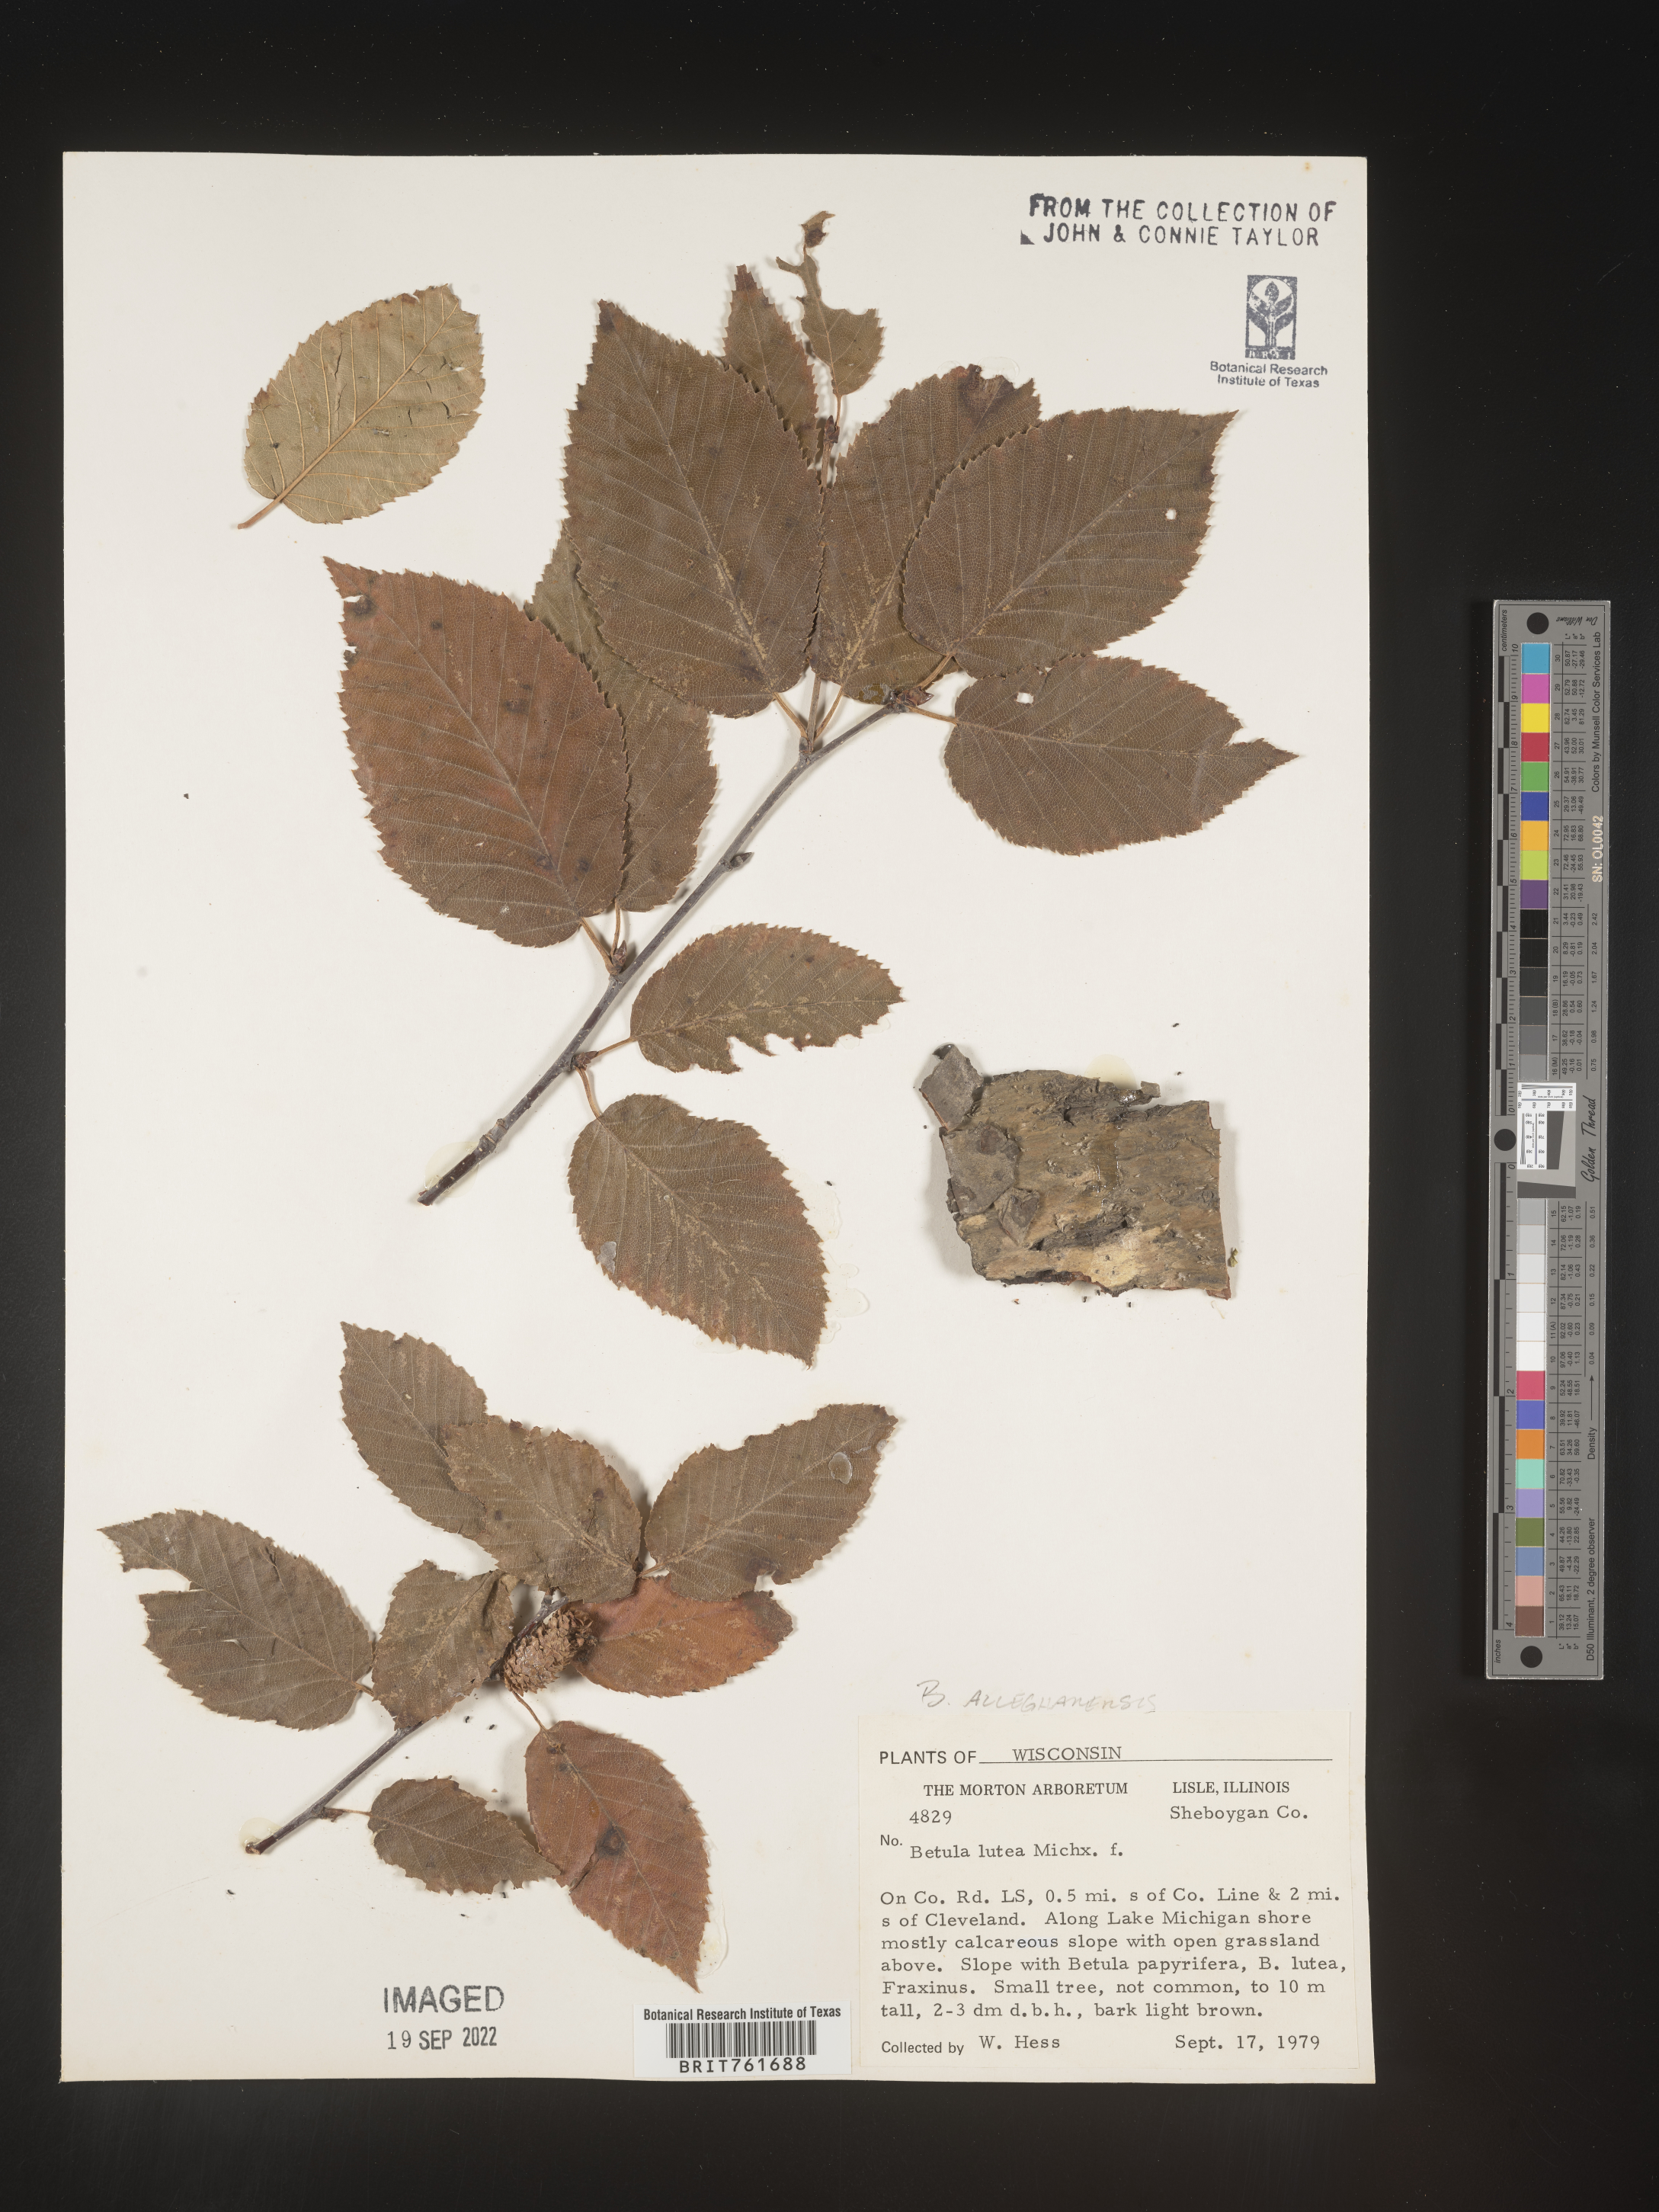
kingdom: Plantae
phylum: Tracheophyta
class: Magnoliopsida
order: Fagales
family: Betulaceae
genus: Betula
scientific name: Betula alleghaniensis
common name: Yellow birch
